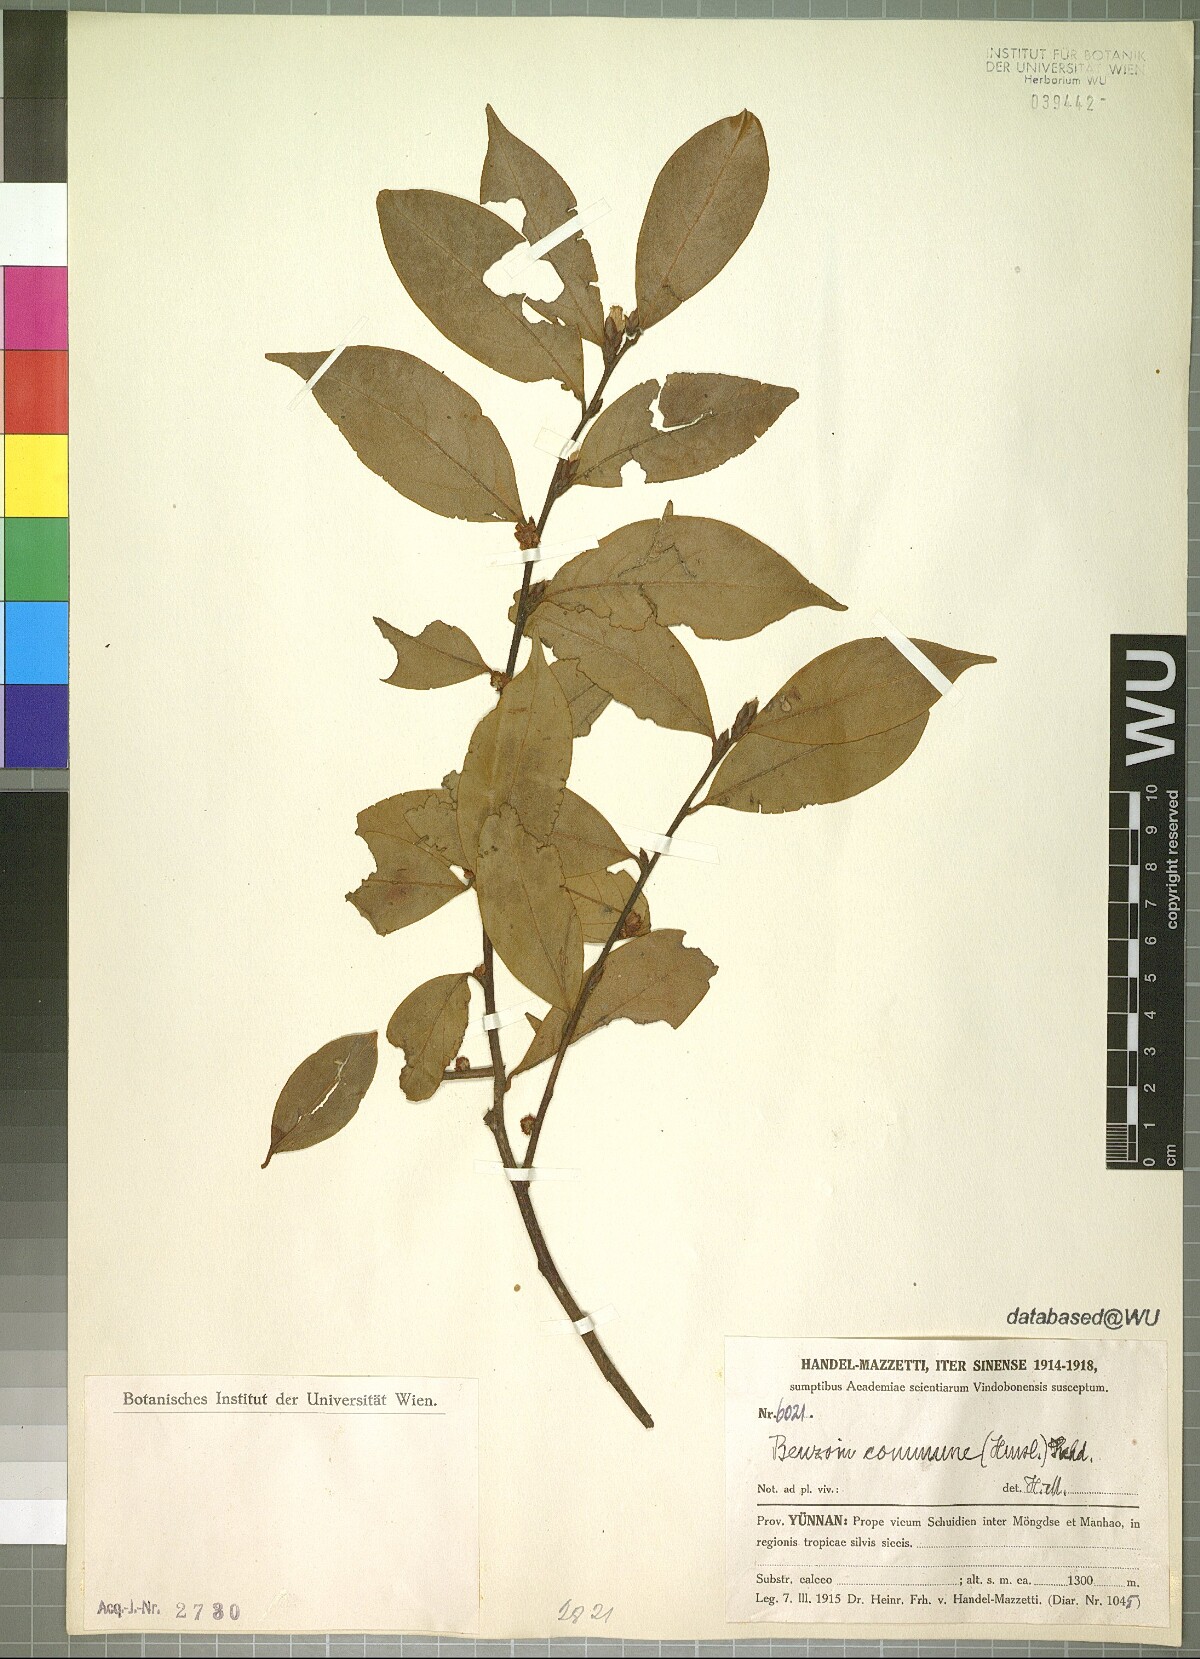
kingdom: Plantae
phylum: Tracheophyta
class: Magnoliopsida
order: Laurales
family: Lauraceae
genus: Lindera
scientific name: Lindera communis
